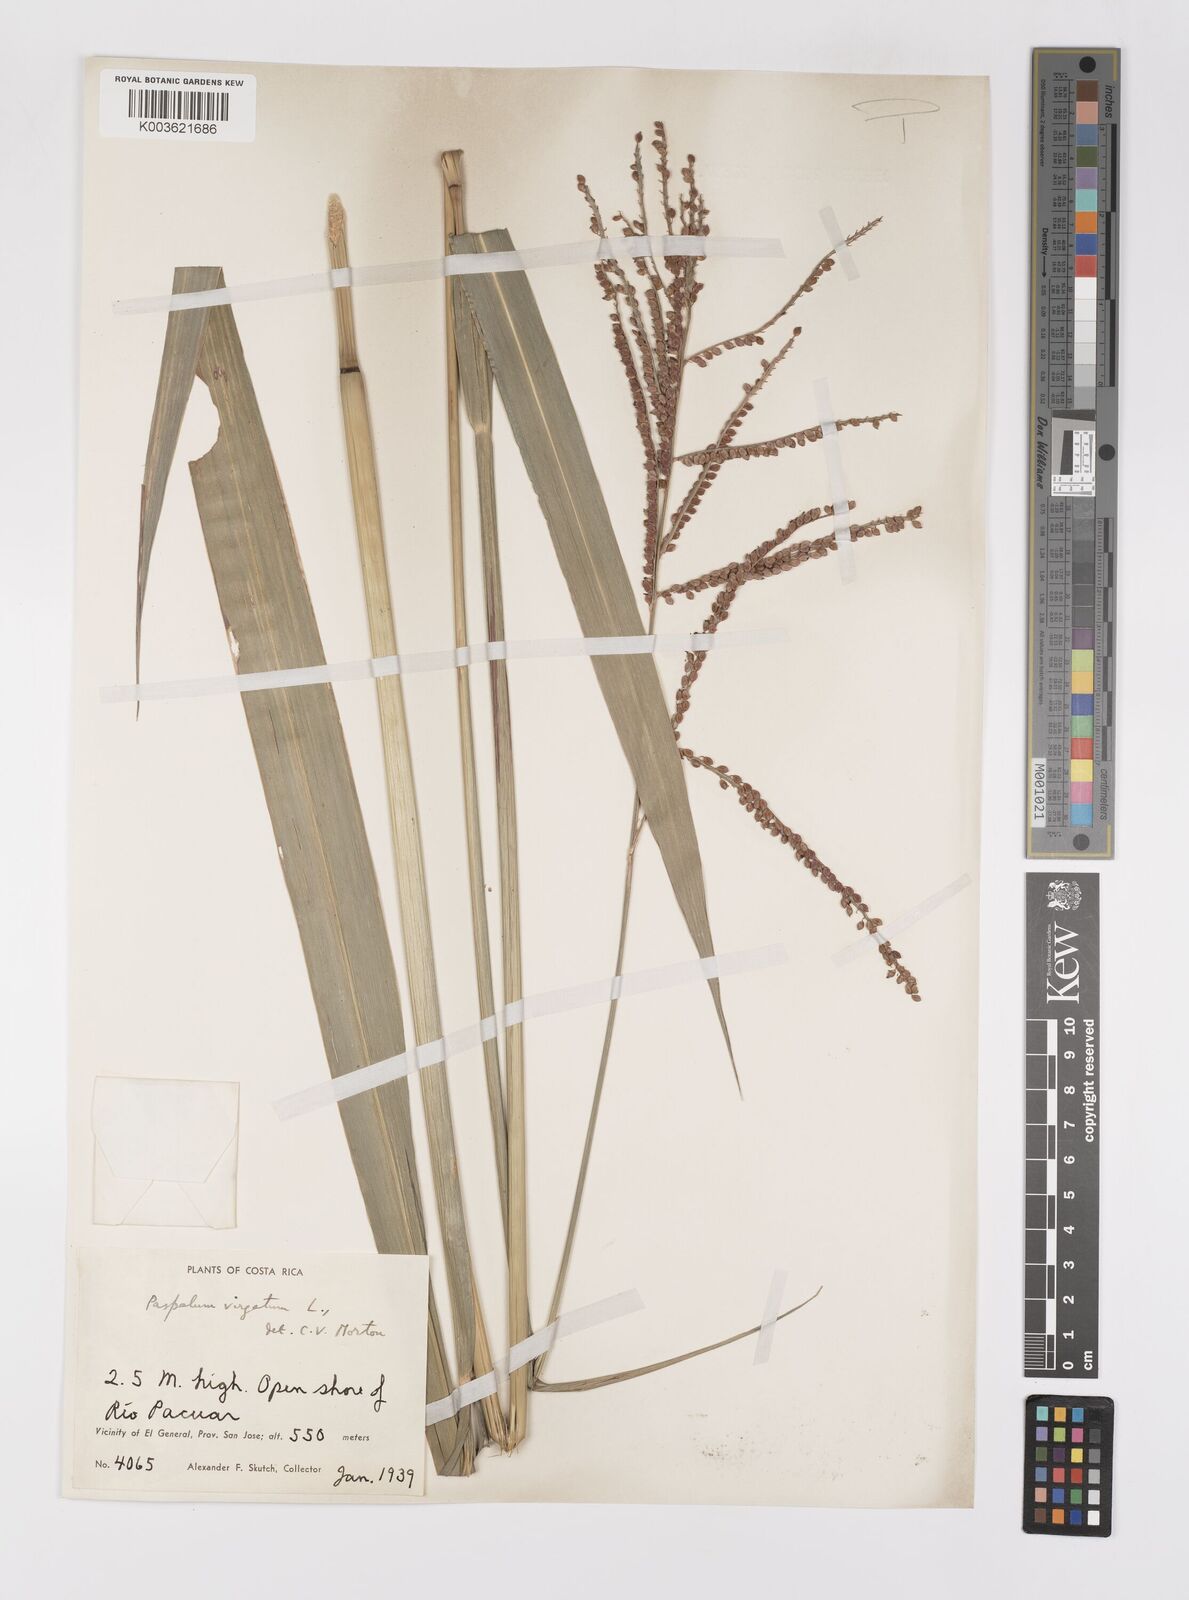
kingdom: Plantae
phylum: Tracheophyta
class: Liliopsida
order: Poales
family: Poaceae
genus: Paspalum
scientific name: Paspalum virgatum
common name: Talquezal
